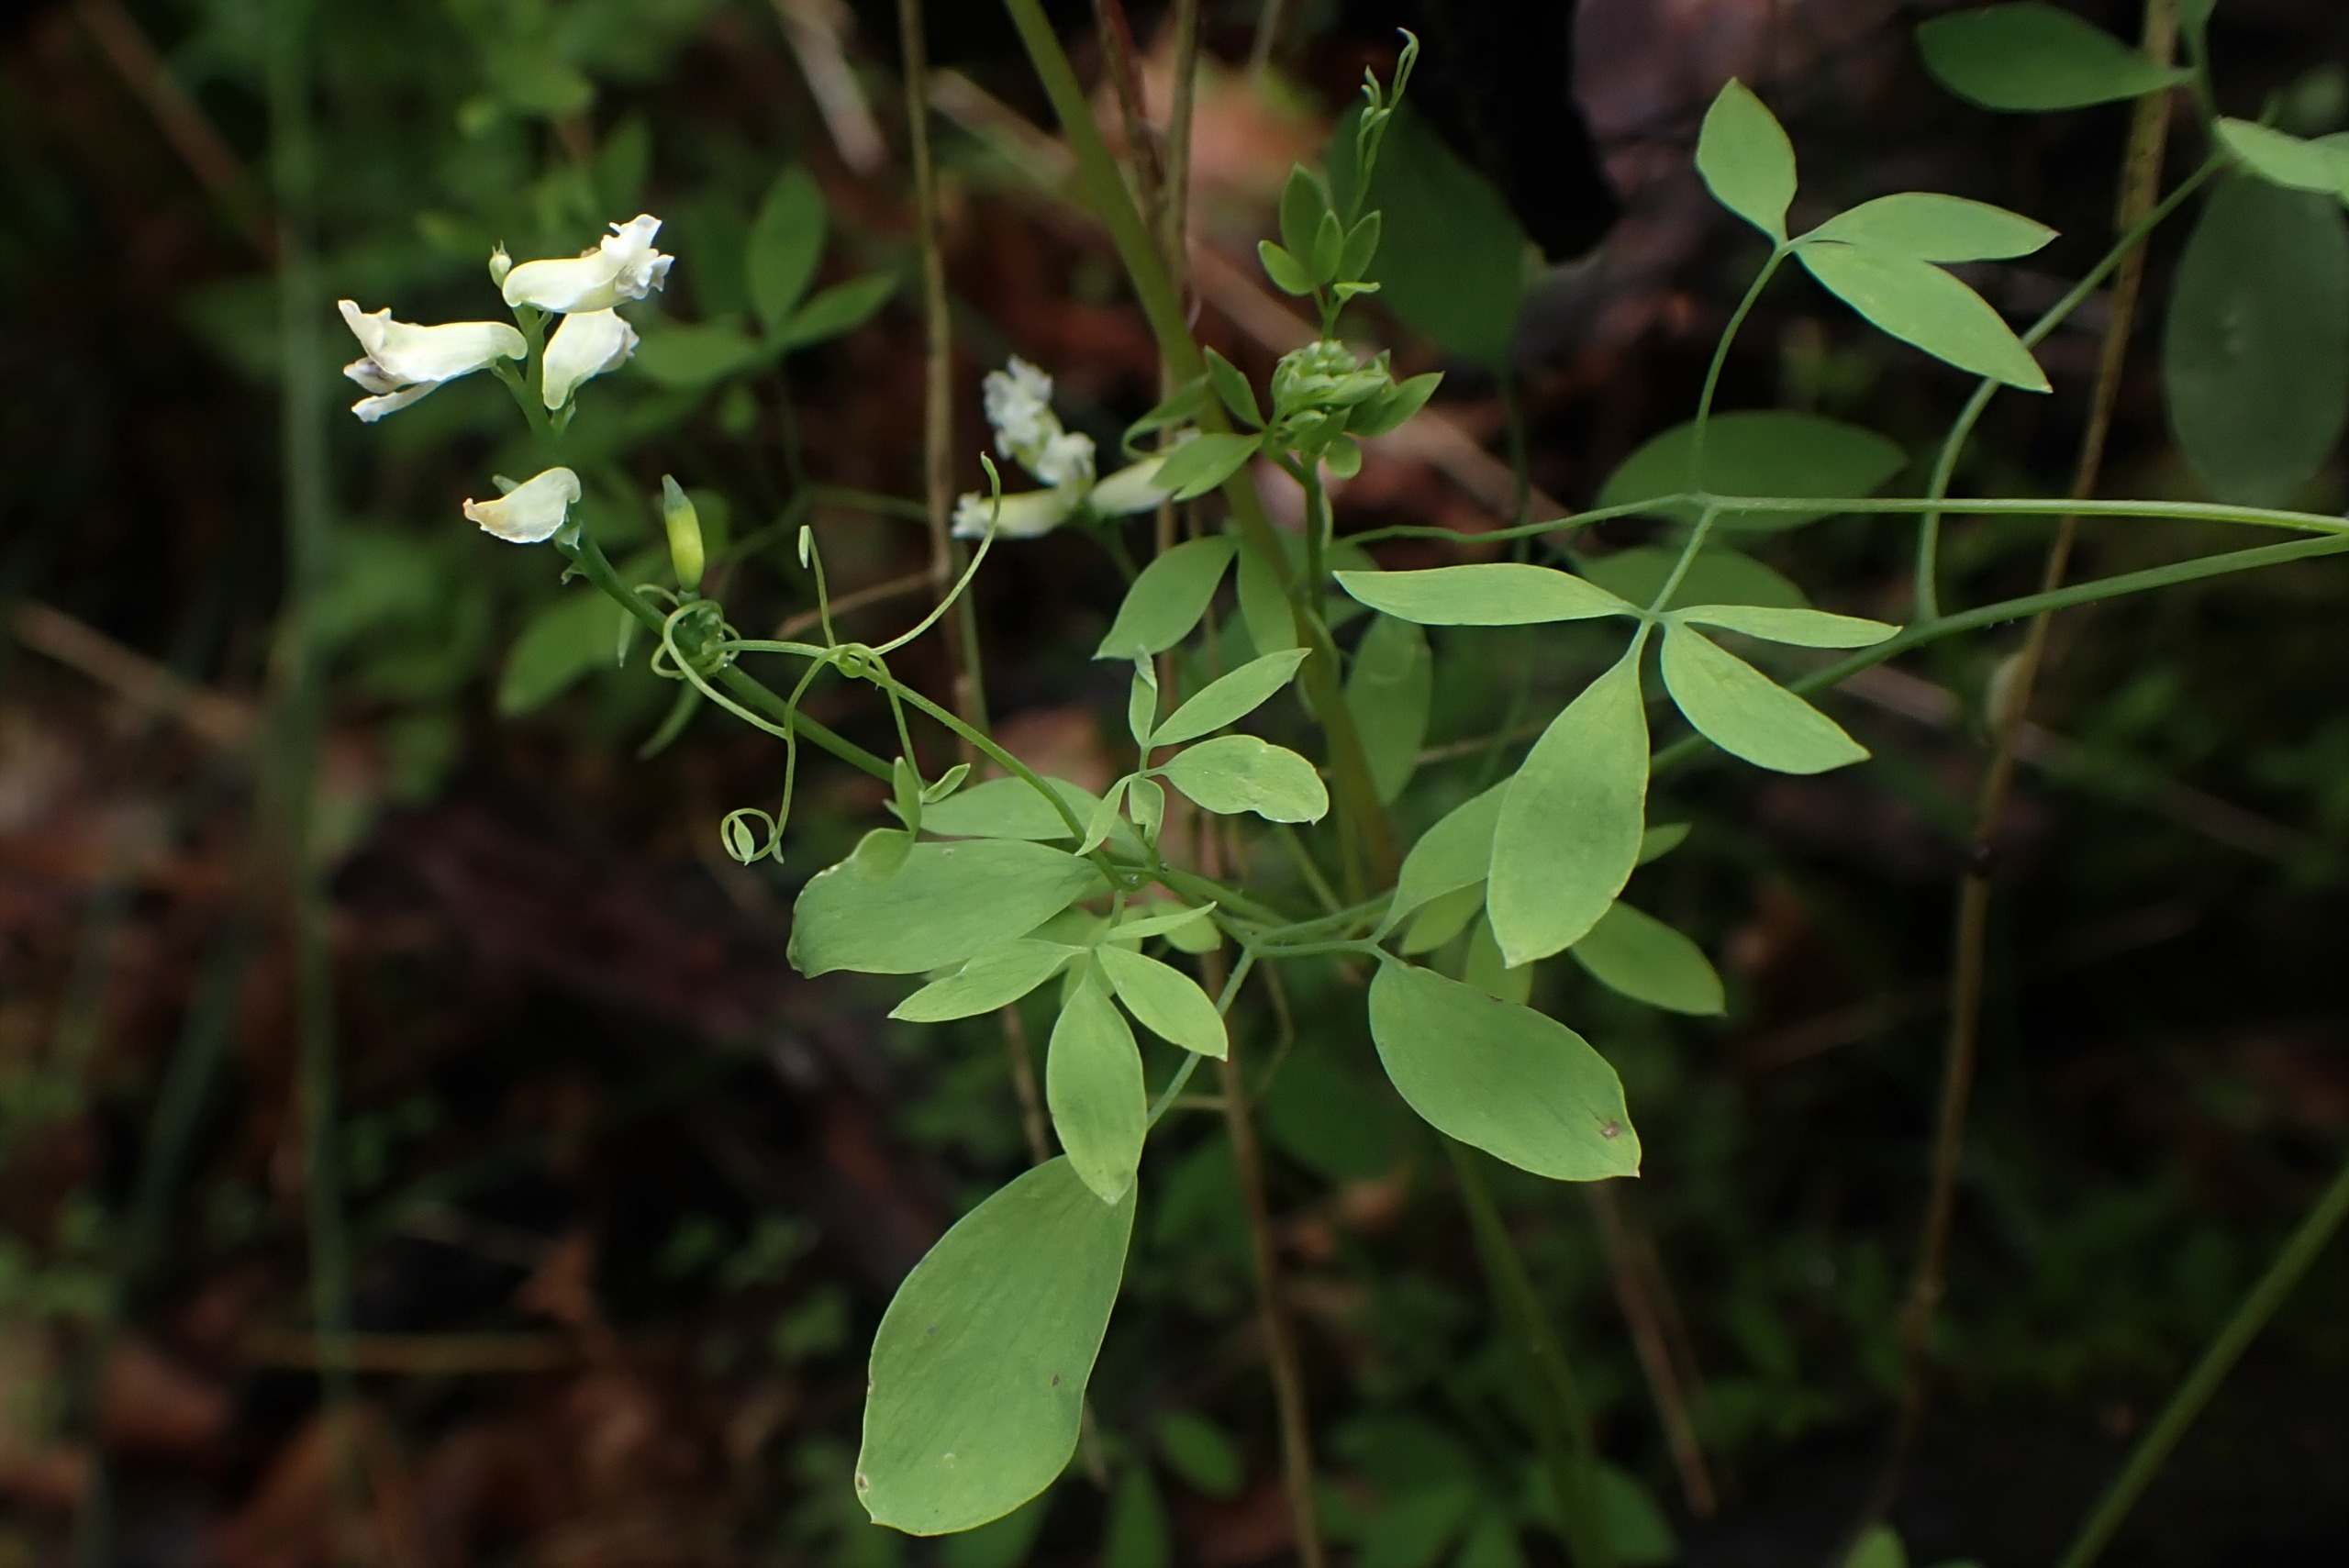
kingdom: Plantae
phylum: Tracheophyta
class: Magnoliopsida
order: Ranunculales
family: Papaveraceae
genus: Ceratocapnos
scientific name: Ceratocapnos claviculata
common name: Klatrende lærkespore
